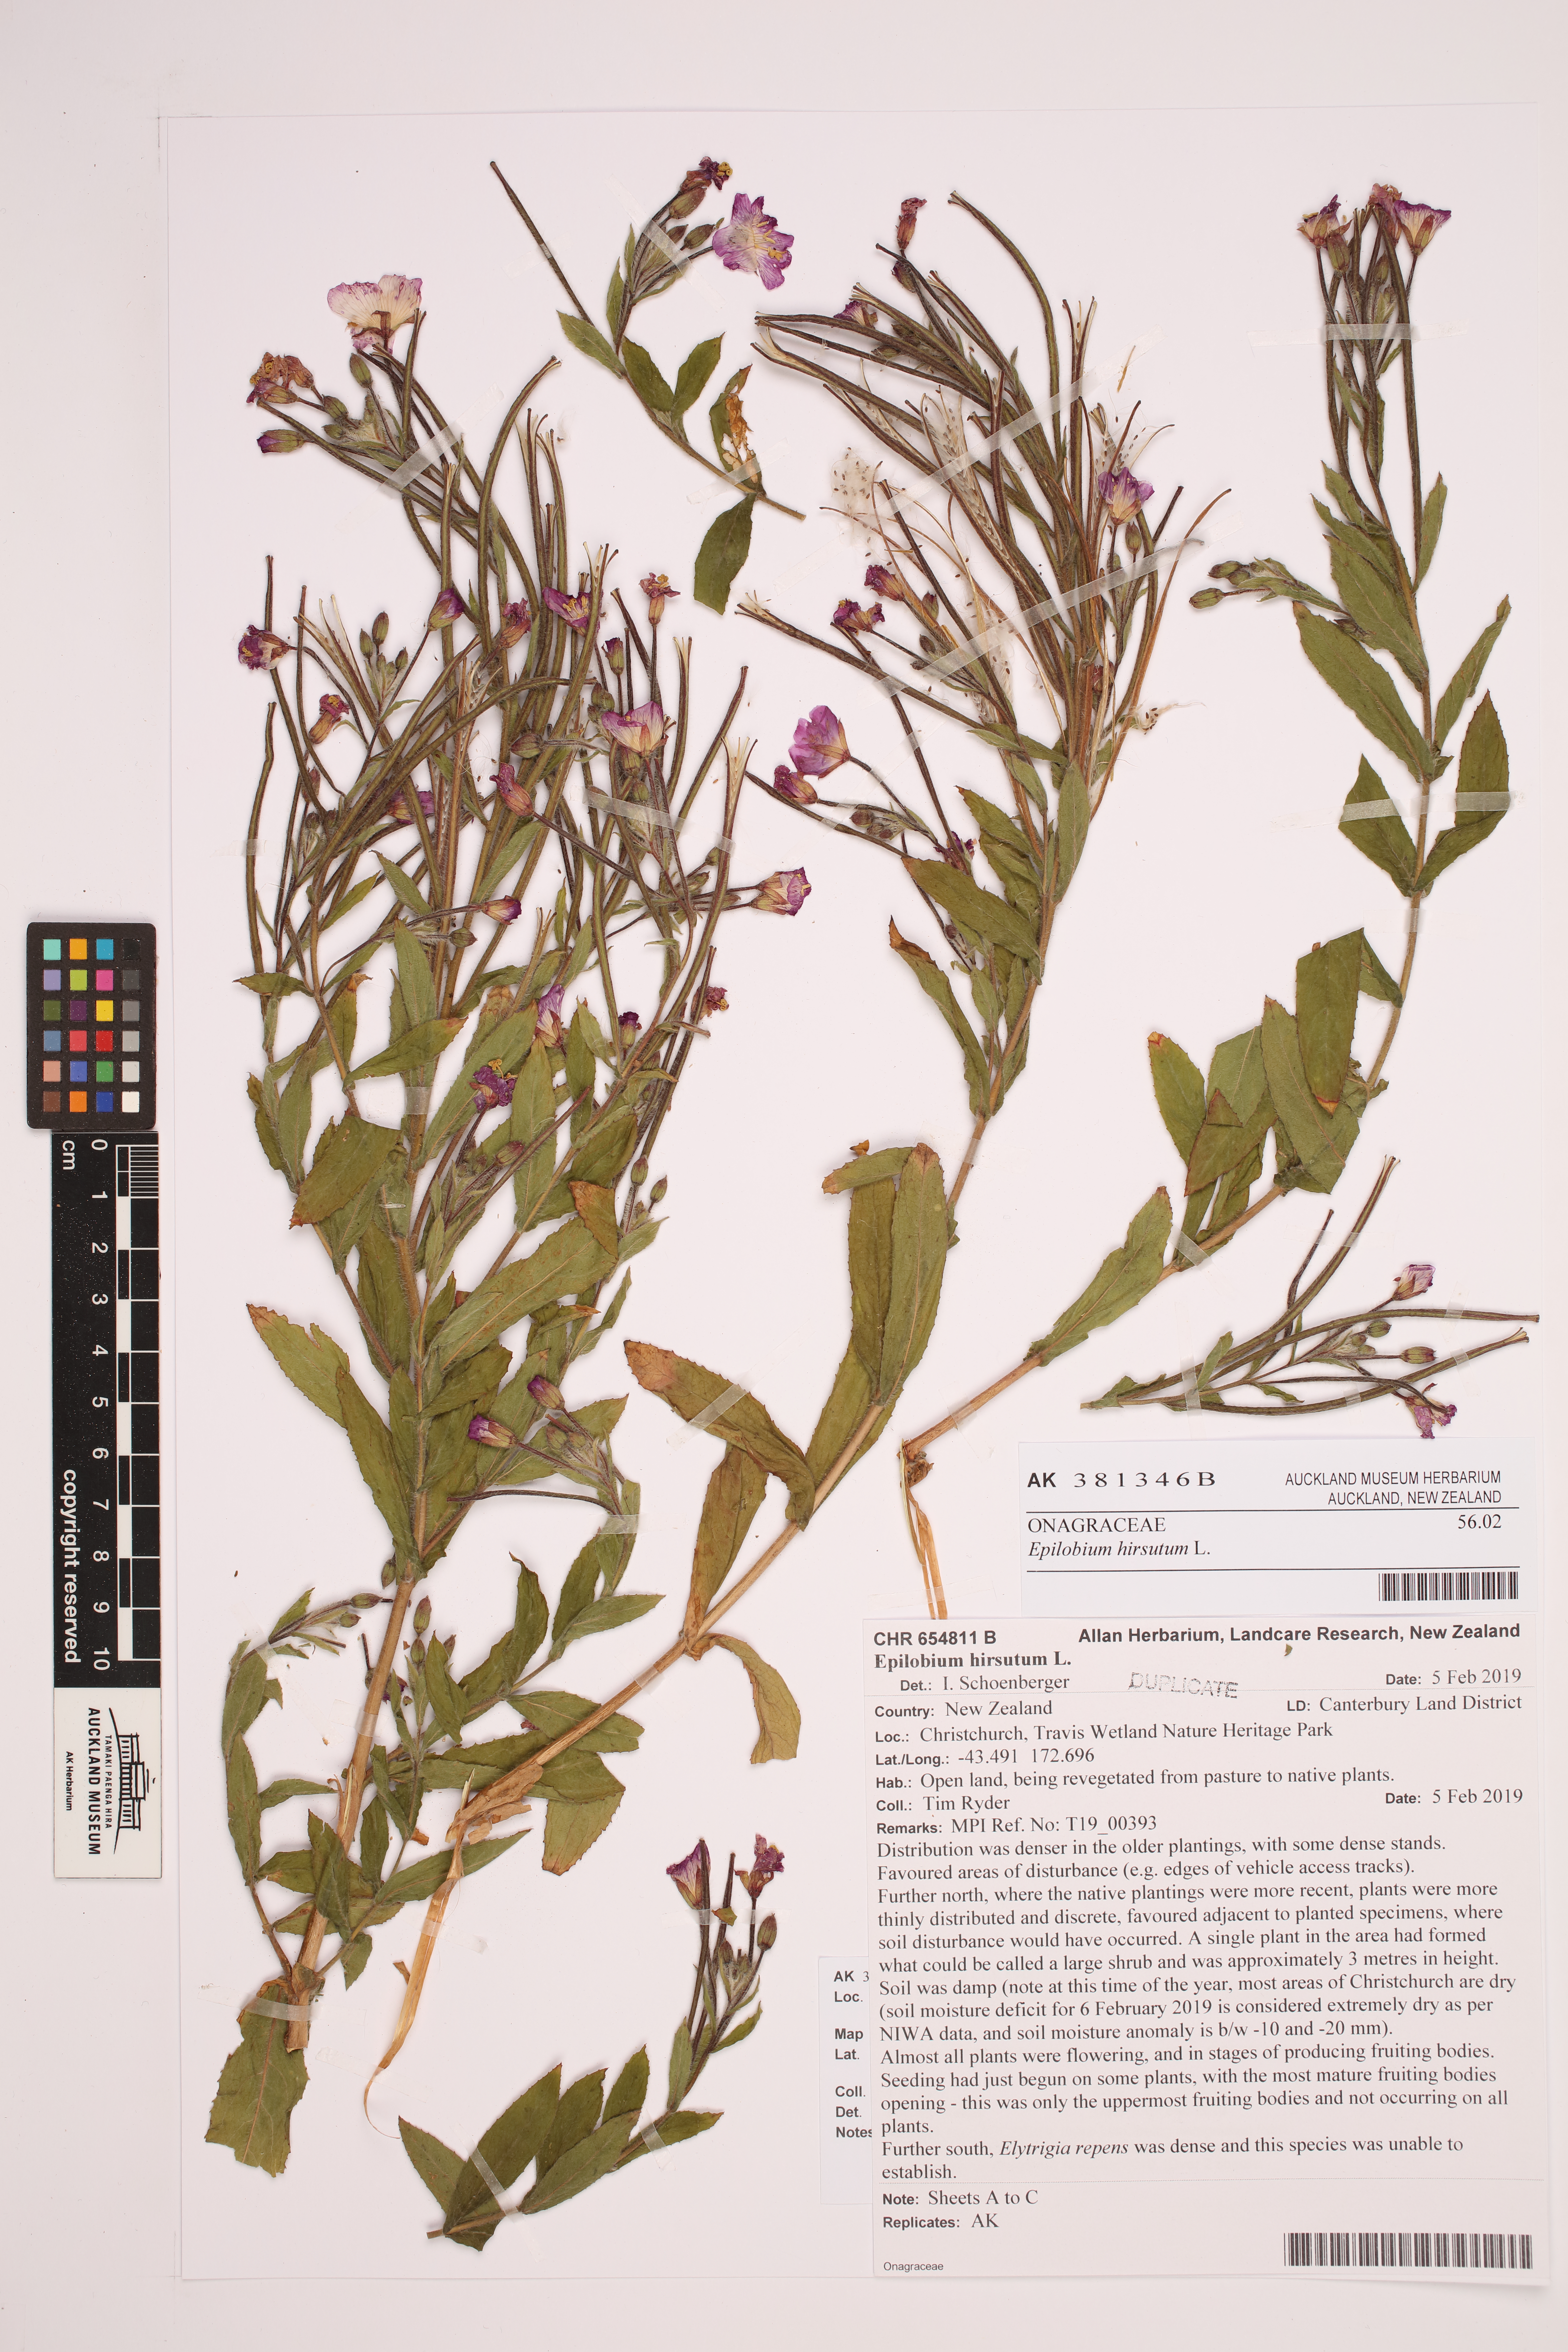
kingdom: Plantae
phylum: Tracheophyta
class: Magnoliopsida
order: Myrtales
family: Onagraceae
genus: Epilobium
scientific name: Epilobium hirsutum
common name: Great willowherb
